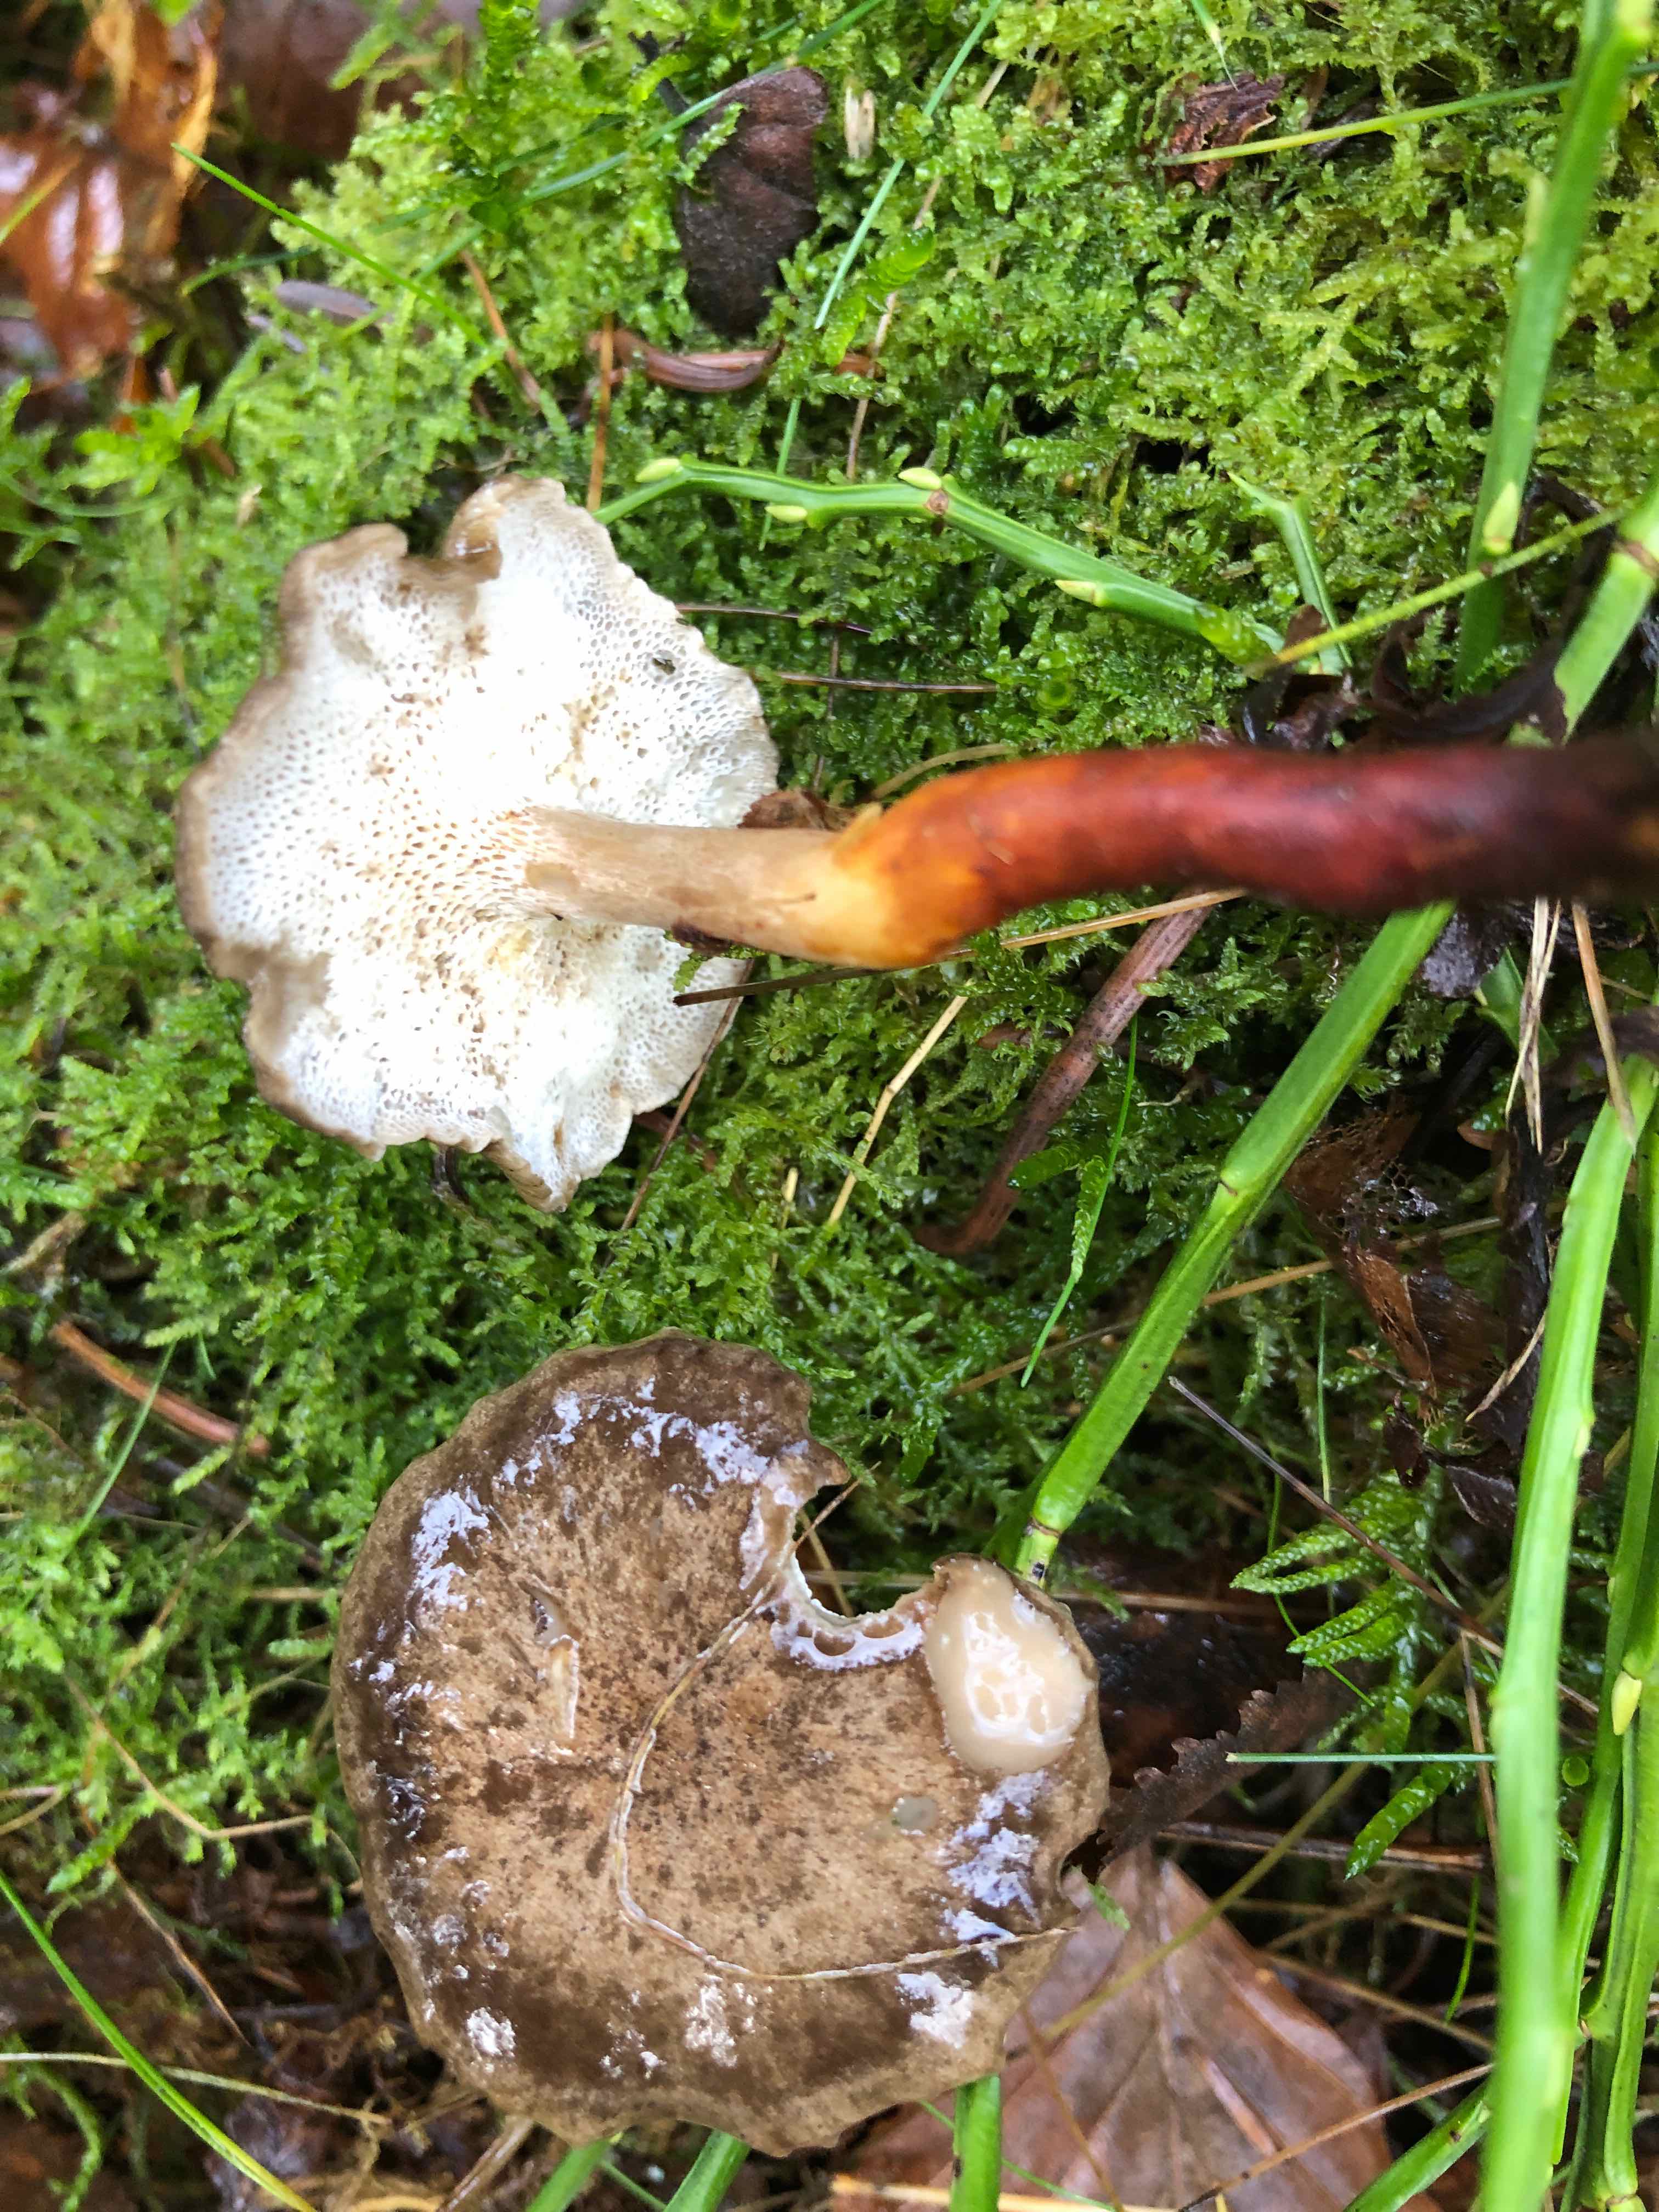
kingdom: Fungi
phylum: Basidiomycota
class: Agaricomycetes
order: Polyporales
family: Polyporaceae
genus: Lentinus
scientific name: Lentinus brumalis
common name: vinter-stilkporesvamp
